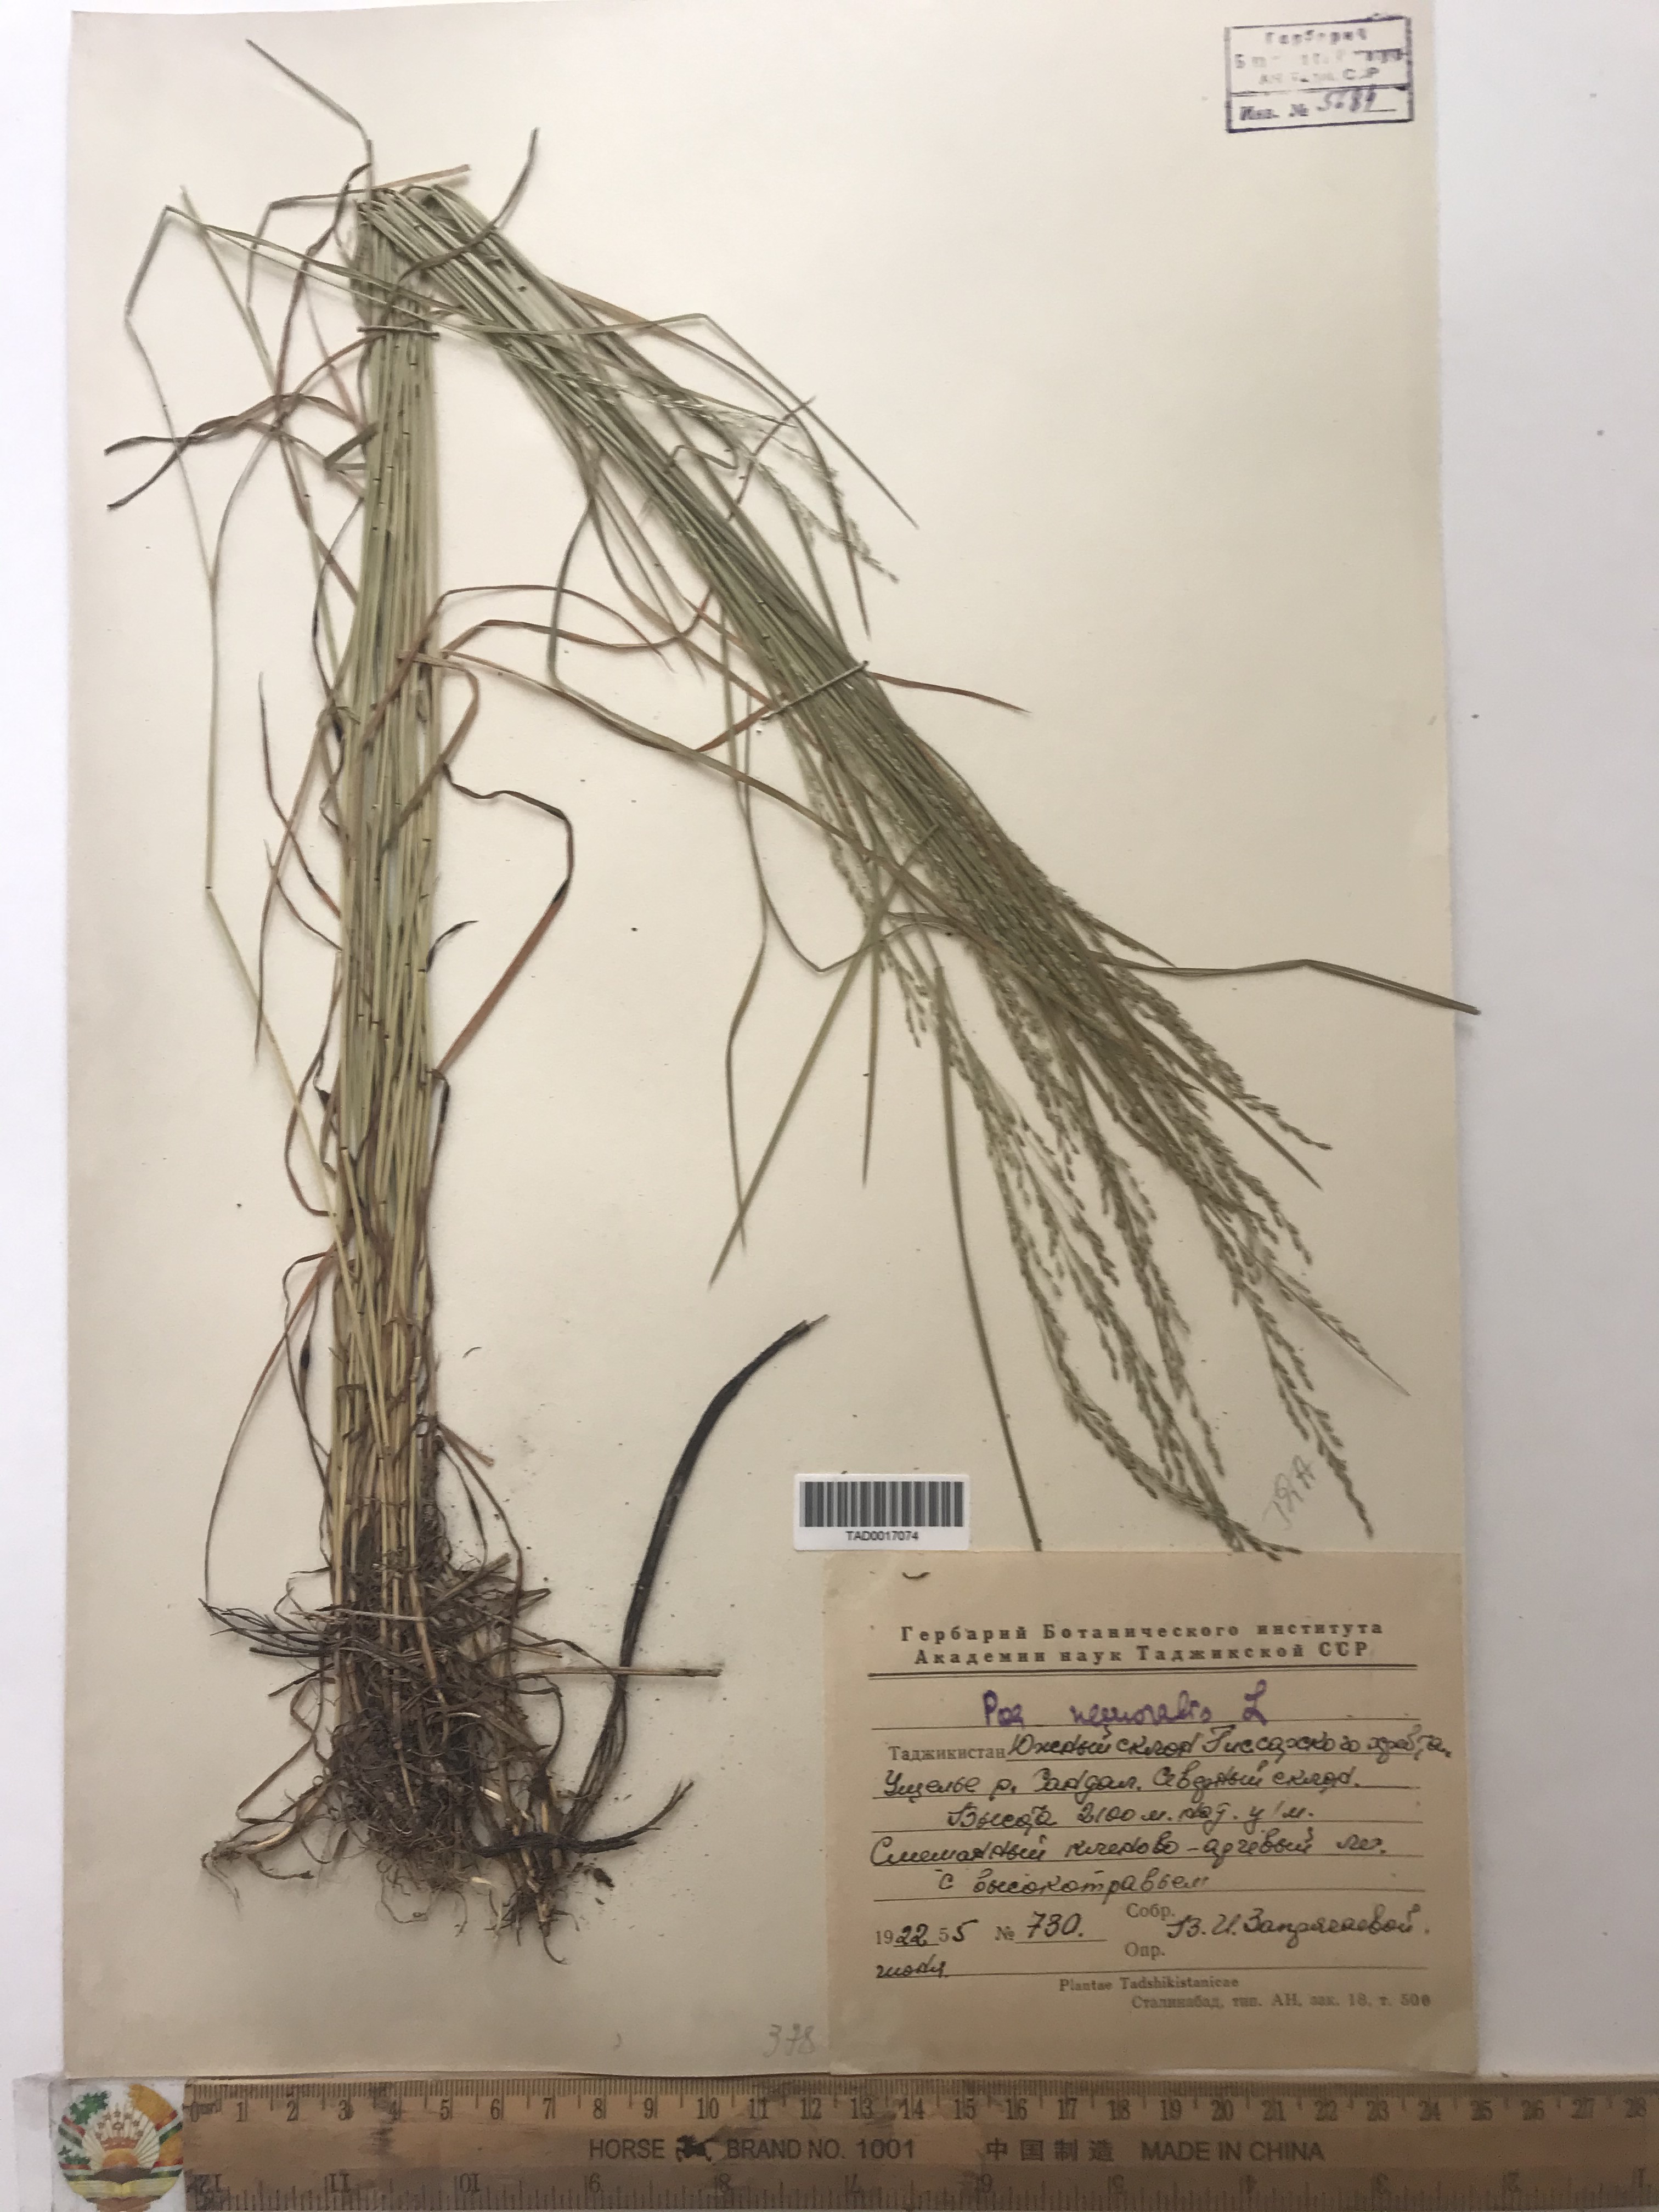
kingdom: Plantae
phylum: Tracheophyta
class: Liliopsida
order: Poales
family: Poaceae
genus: Poa
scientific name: Poa nemoralis
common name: Wood bluegrass
